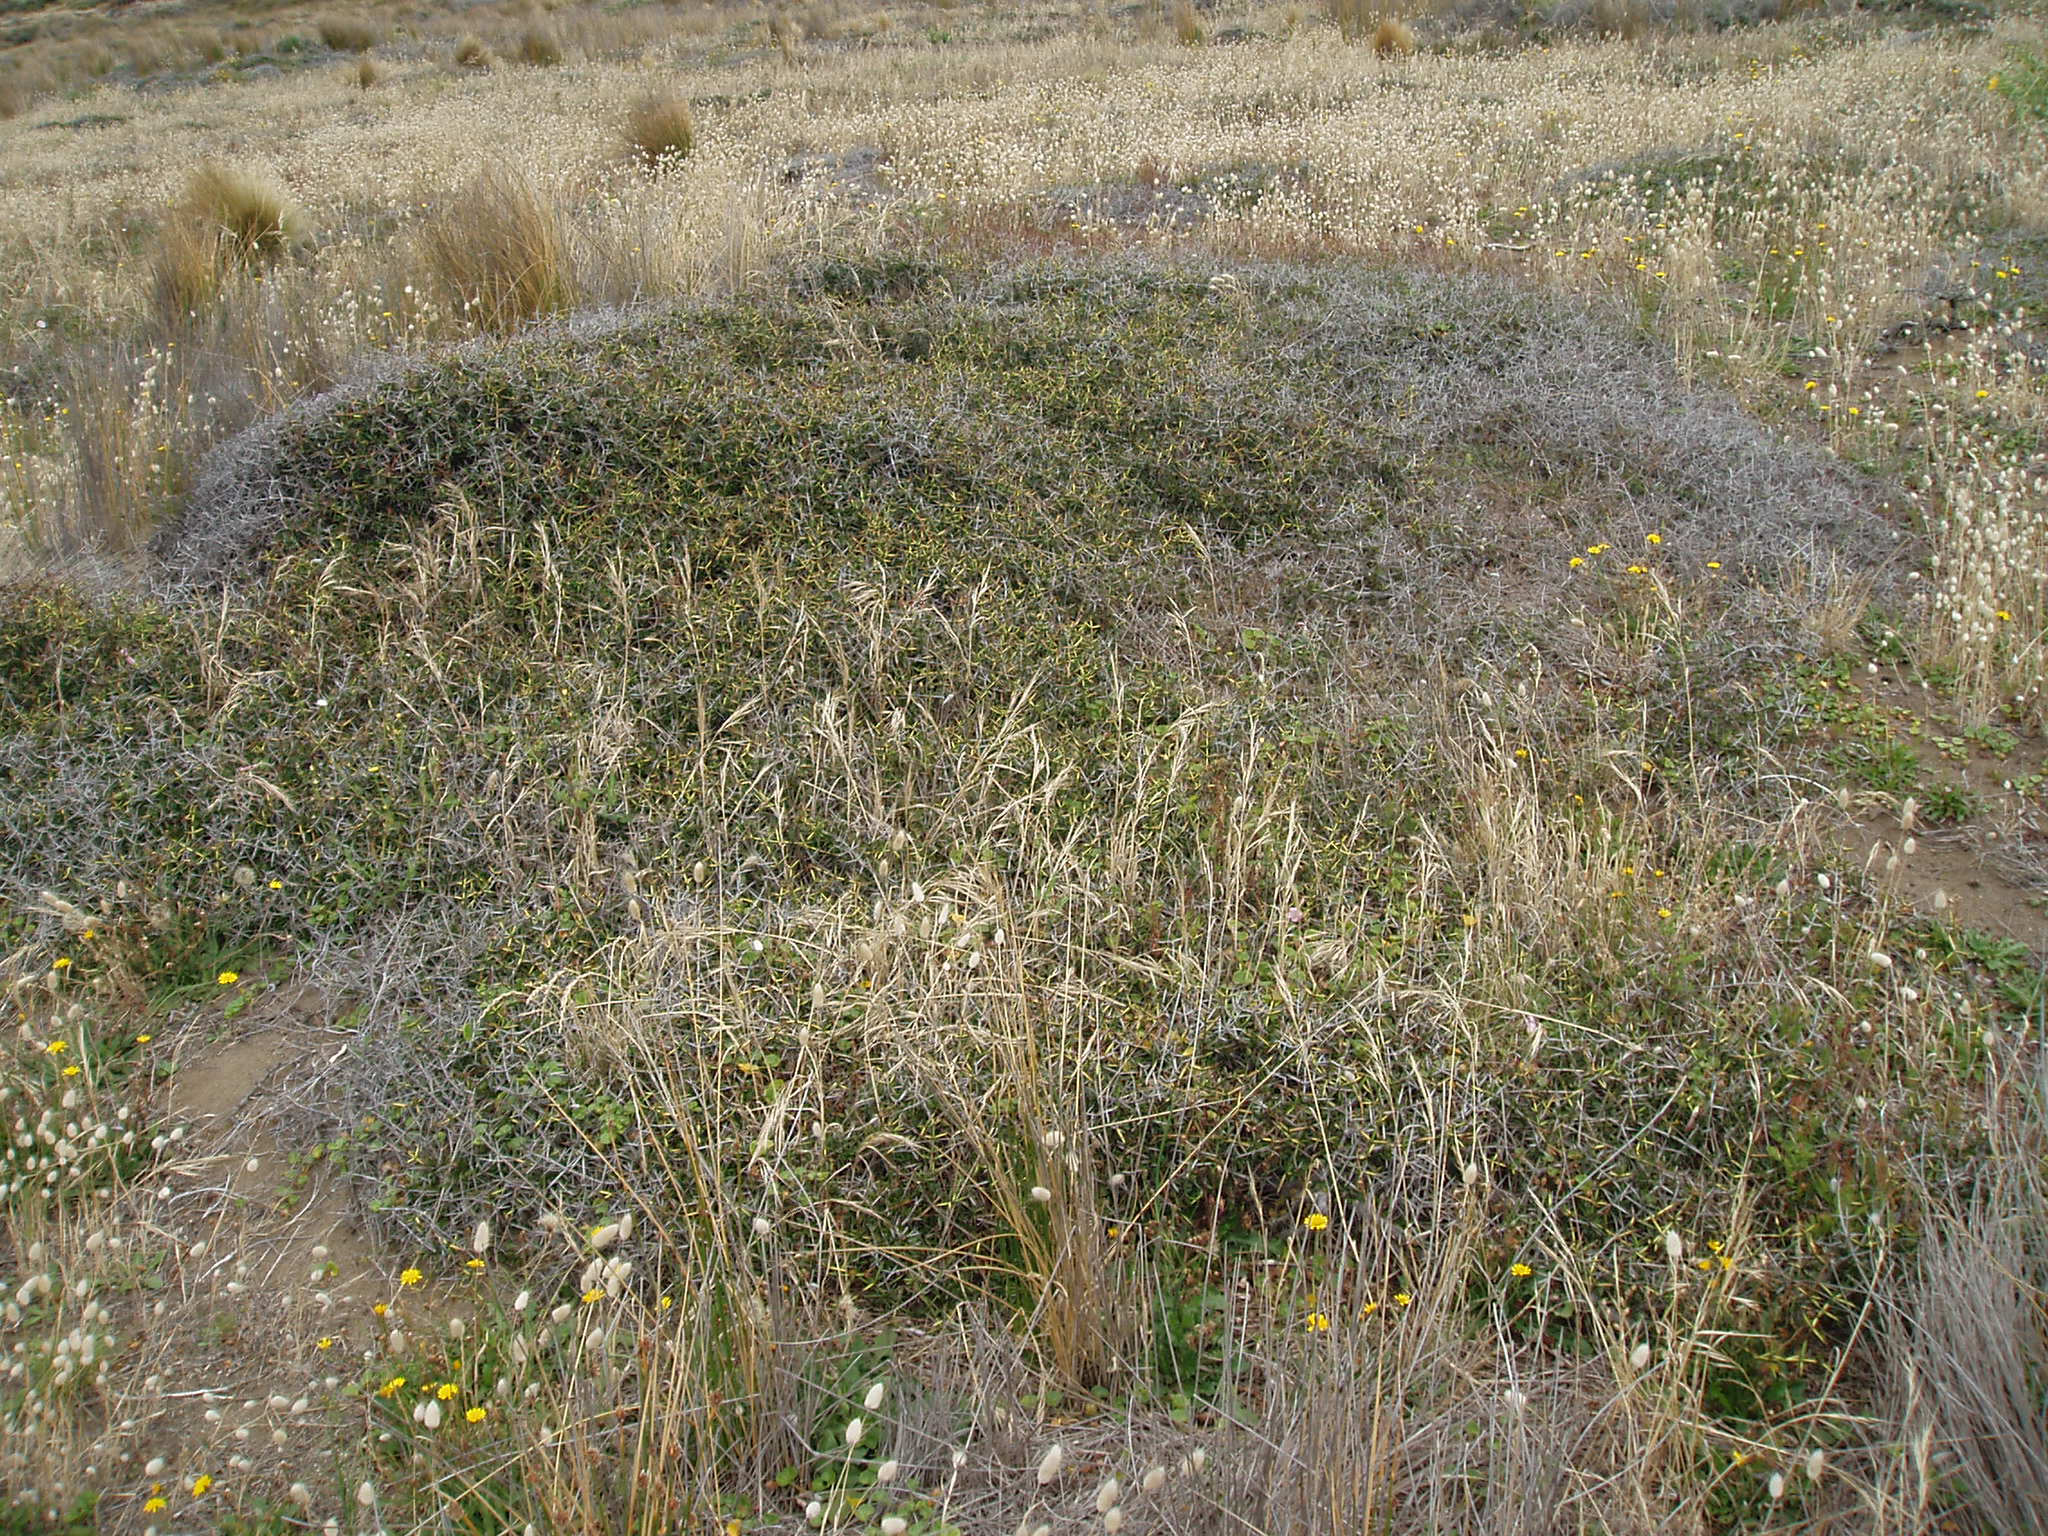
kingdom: Plantae
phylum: Tracheophyta
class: Magnoliopsida
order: Rosales
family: Rhamnaceae
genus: Discaria
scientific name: Discaria toumatou
